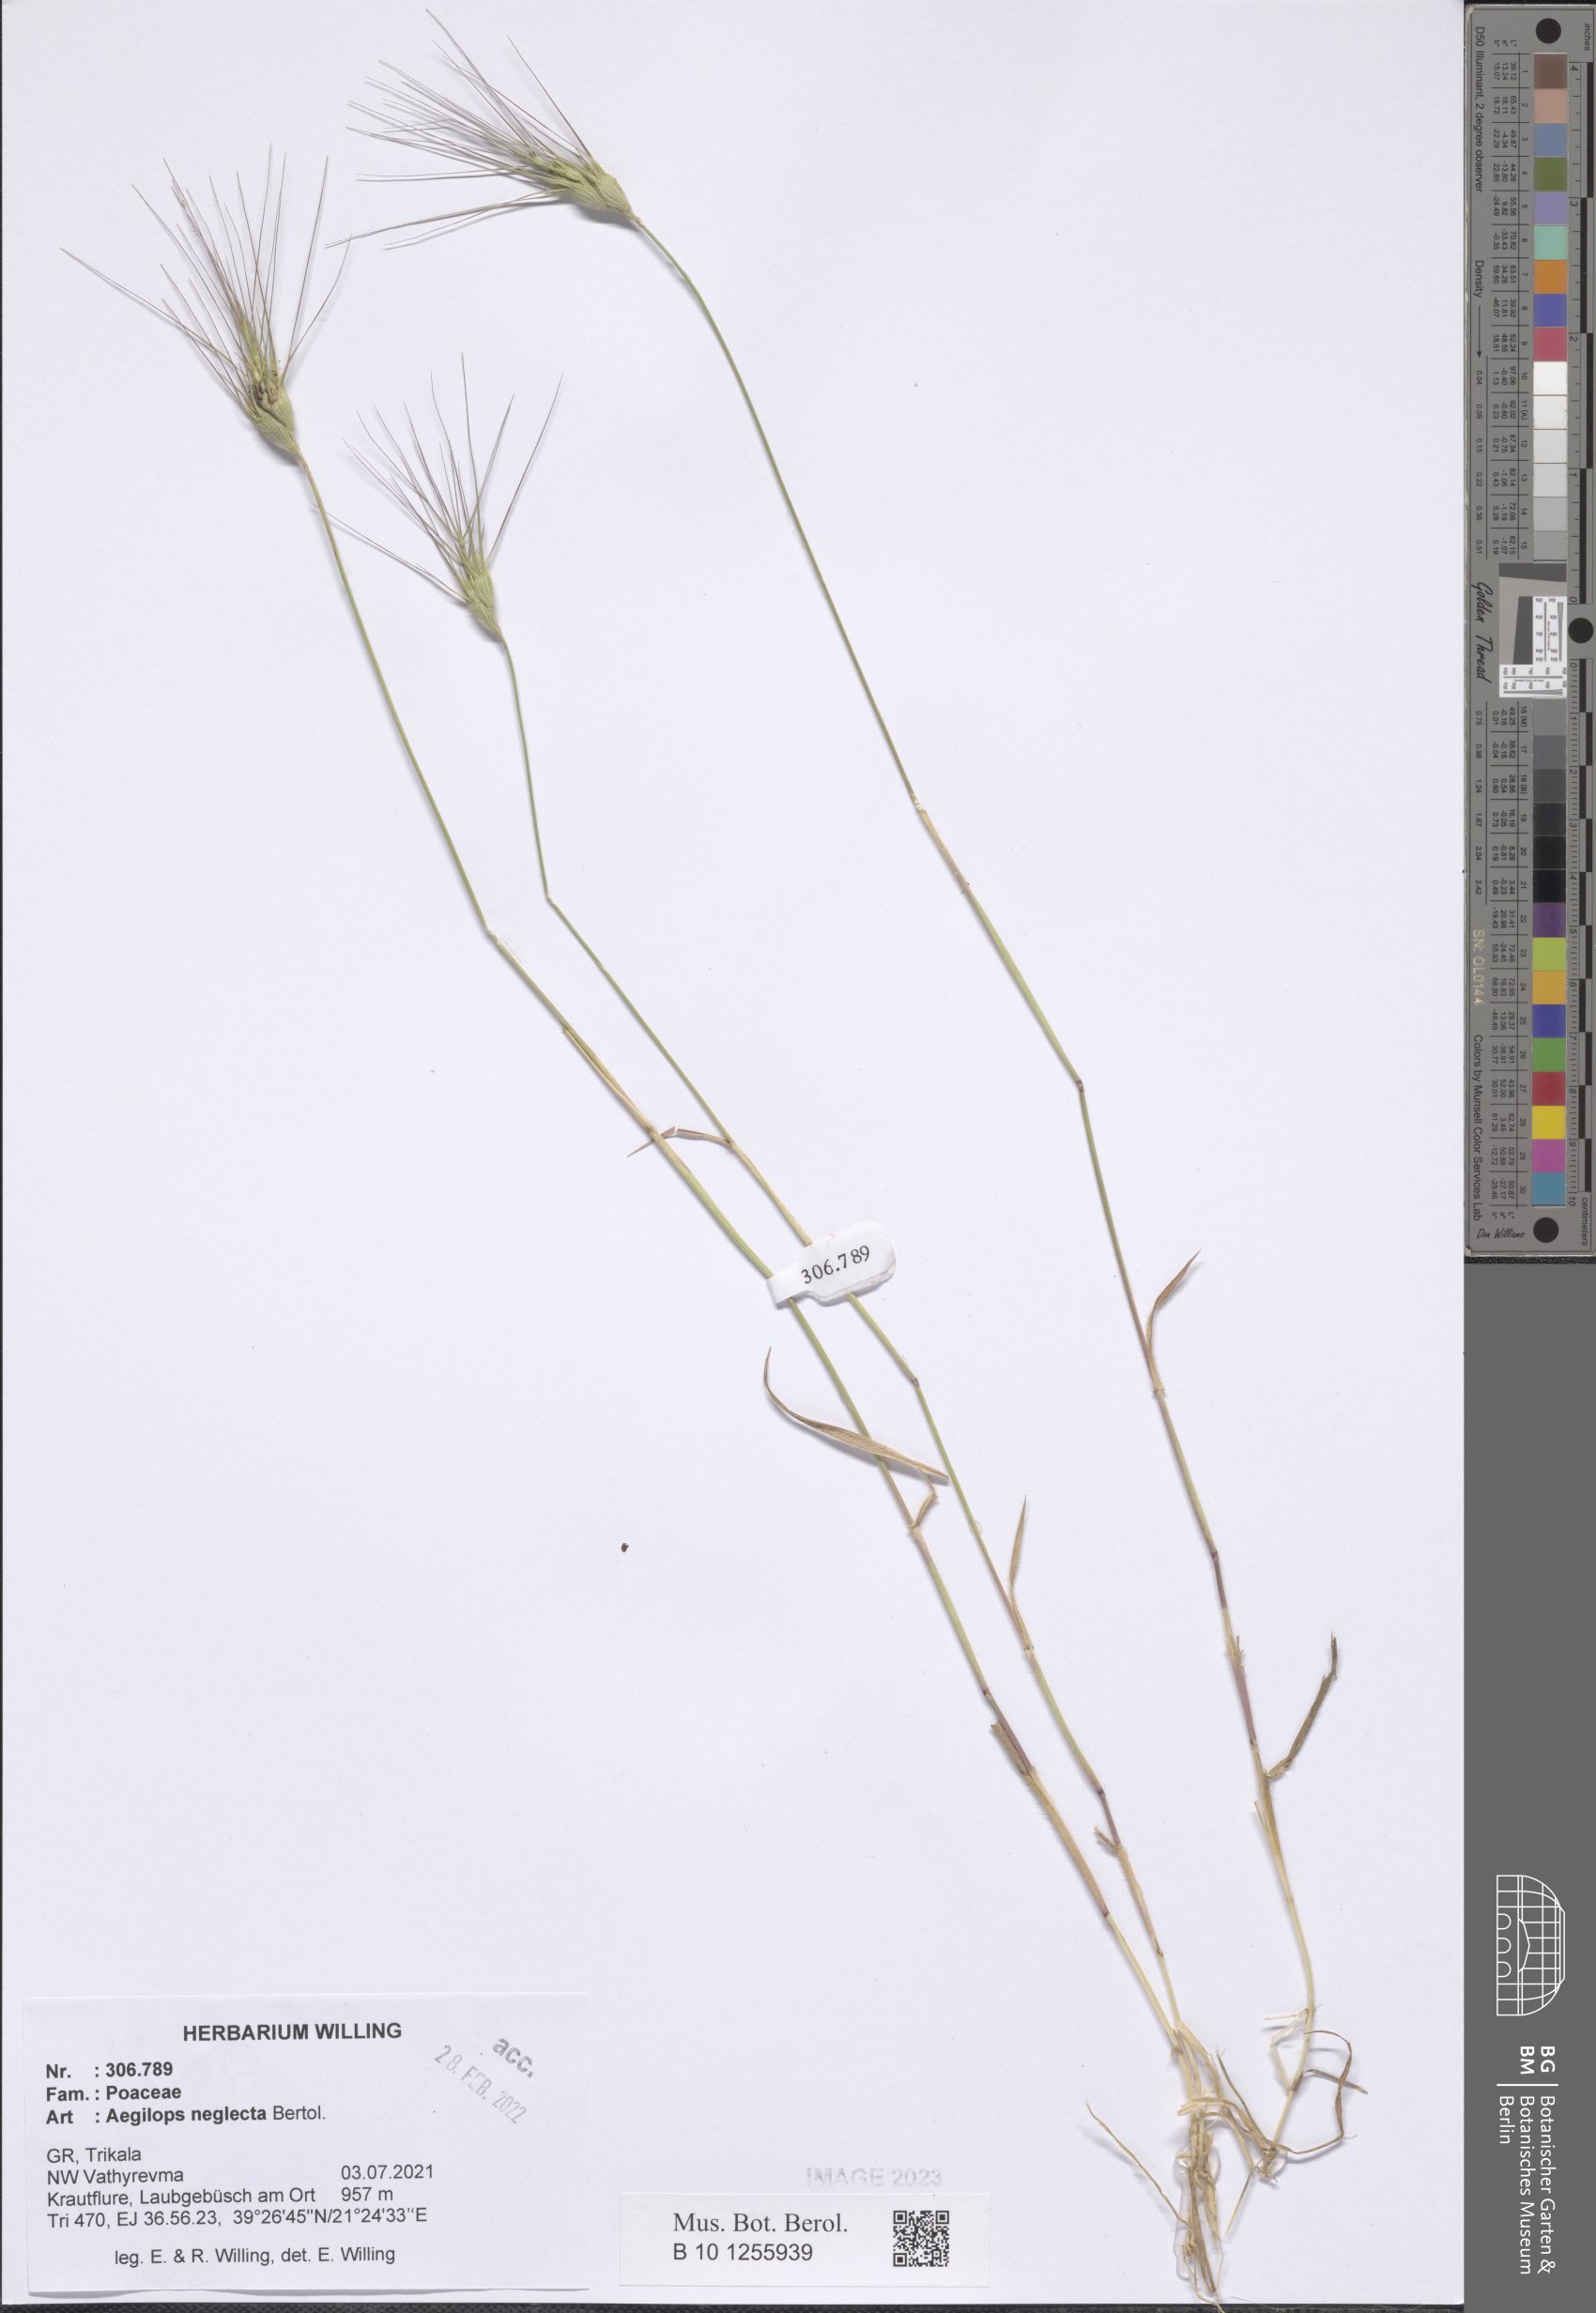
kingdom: Plantae
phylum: Tracheophyta
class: Liliopsida
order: Poales
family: Poaceae
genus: Aegilops
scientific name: Aegilops neglecta
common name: Three-awn goat grass
